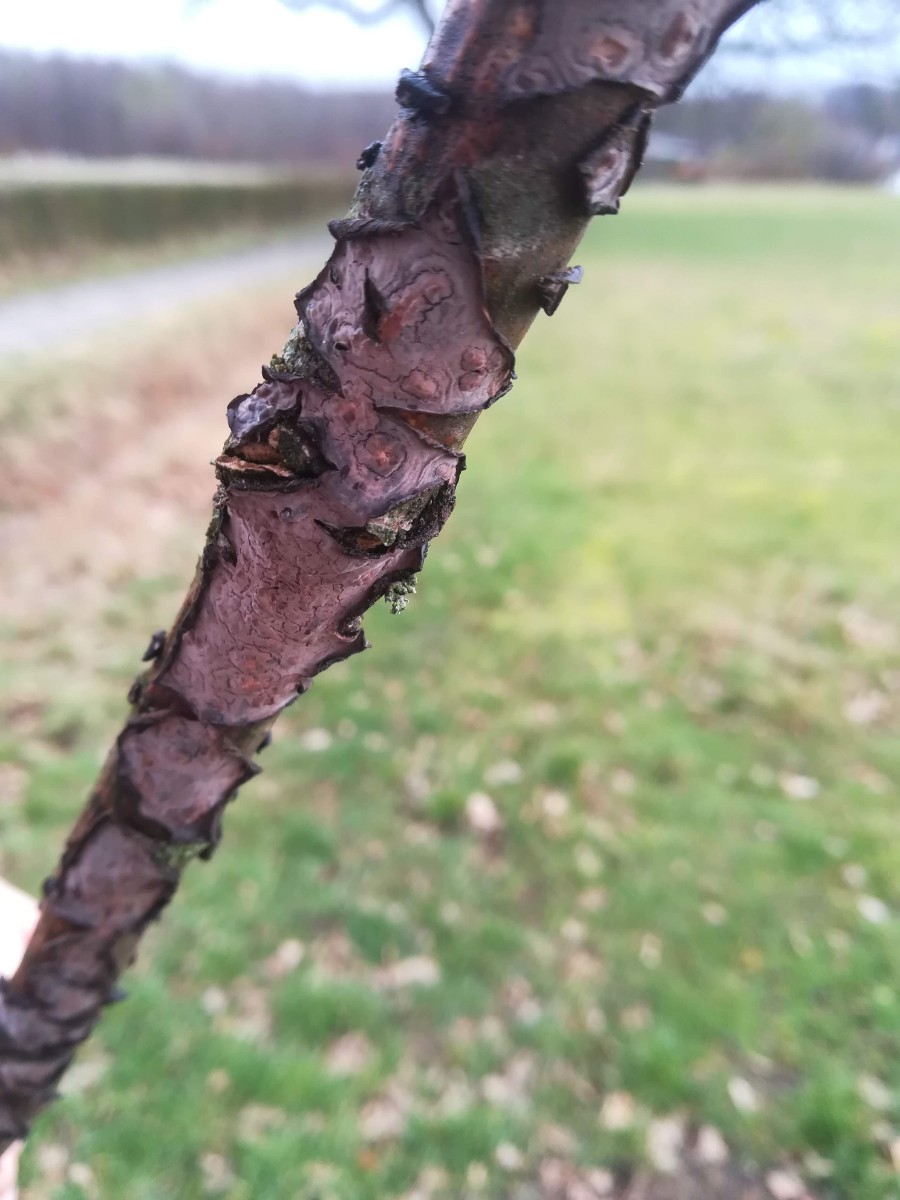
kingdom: Fungi
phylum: Basidiomycota
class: Agaricomycetes
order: Russulales
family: Peniophoraceae
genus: Peniophora
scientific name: Peniophora quercina
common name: ege-voksskind
